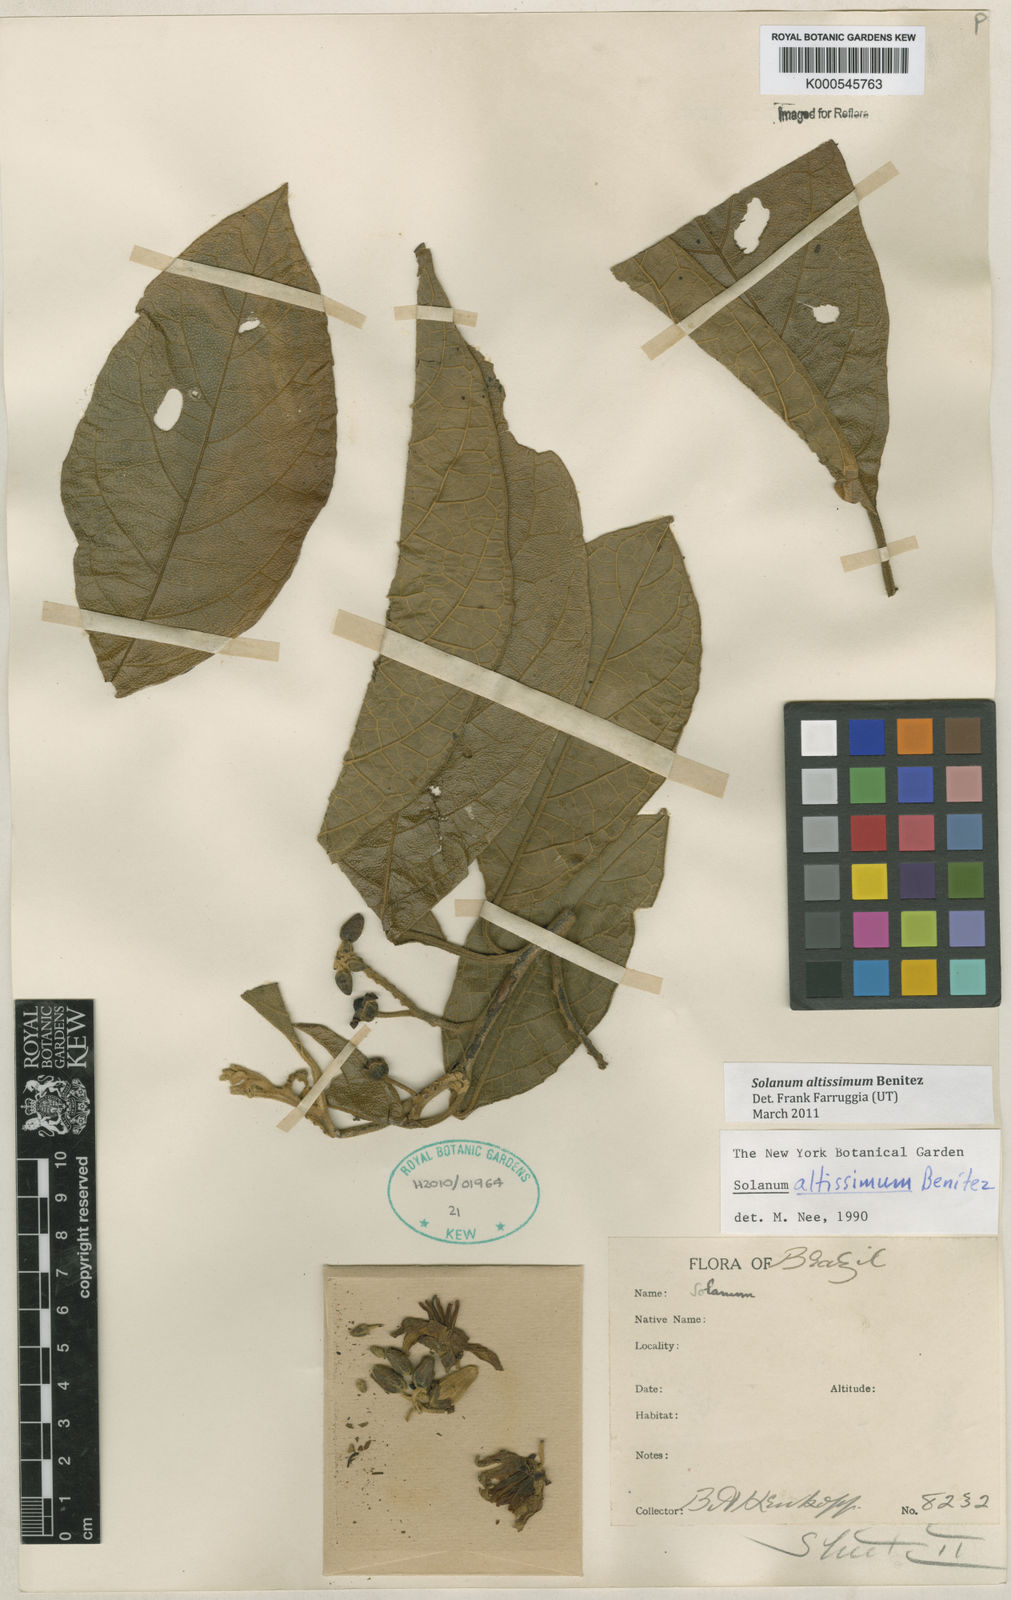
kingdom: Plantae
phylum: Tracheophyta
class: Magnoliopsida
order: Solanales
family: Solanaceae
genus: Solanum
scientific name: Solanum
